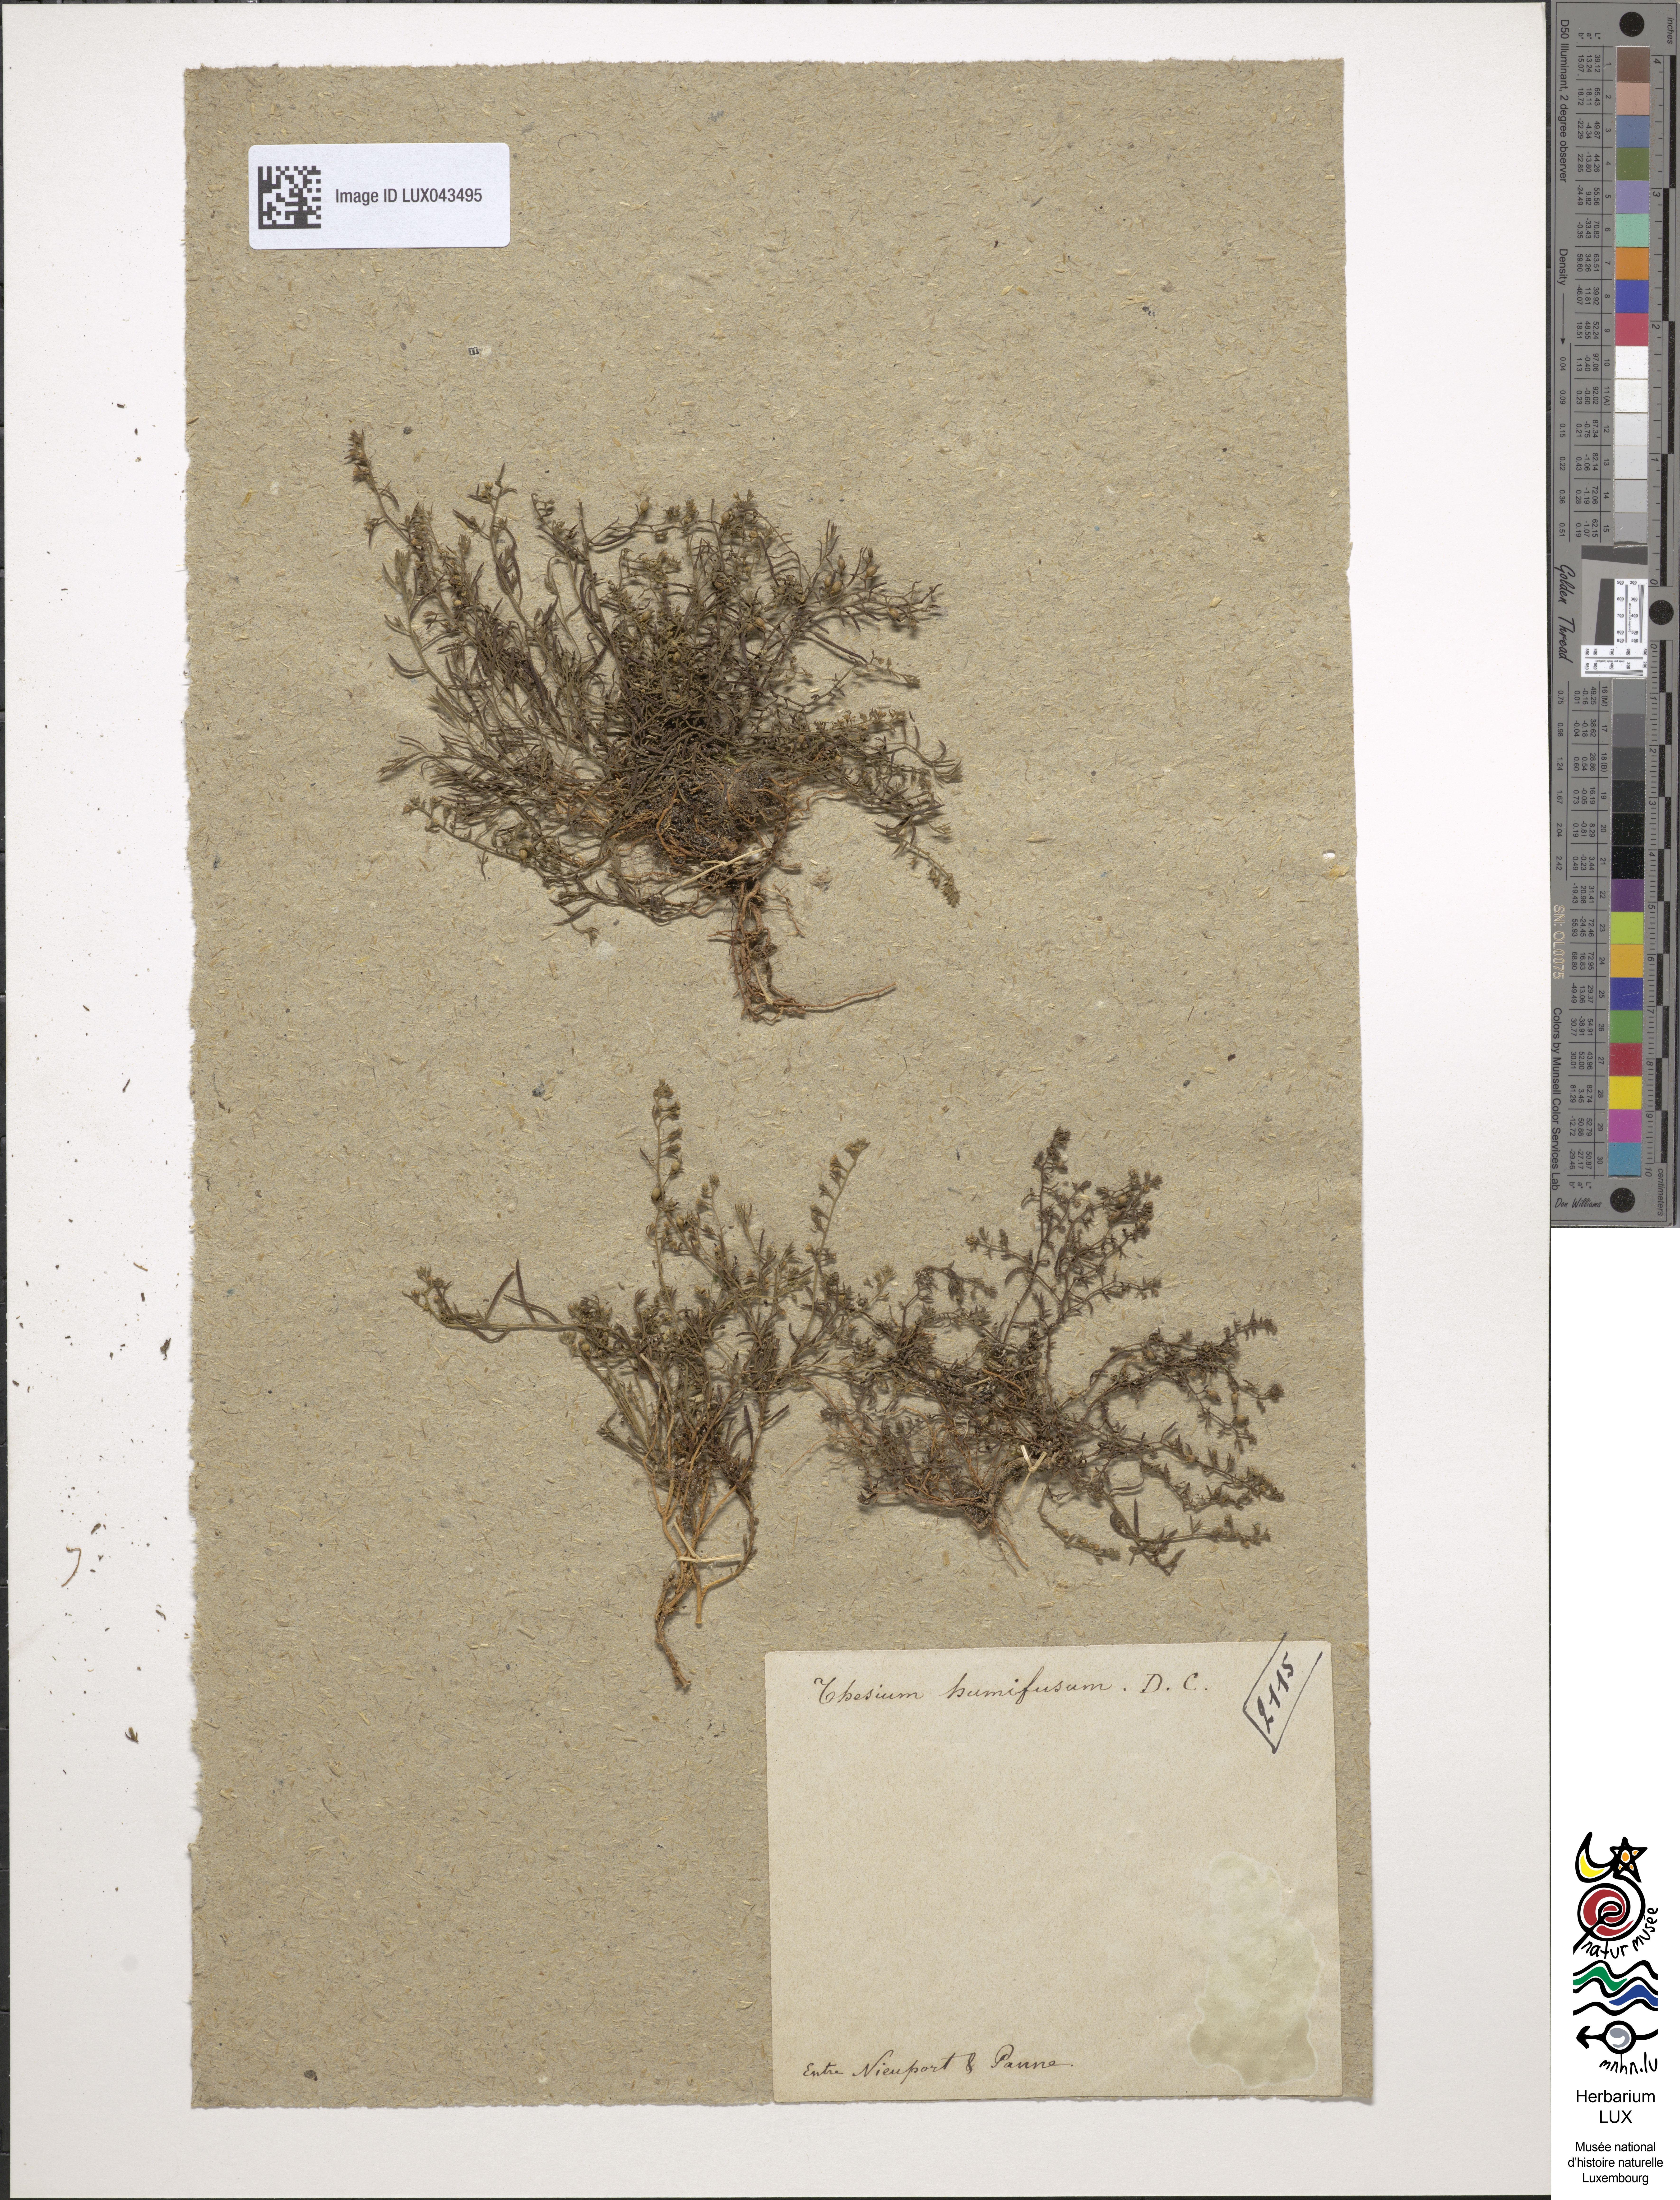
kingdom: Plantae
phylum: Tracheophyta
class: Magnoliopsida
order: Santalales
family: Thesiaceae
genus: Thesium
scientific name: Thesium humifusum
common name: Bastard-toadflax
